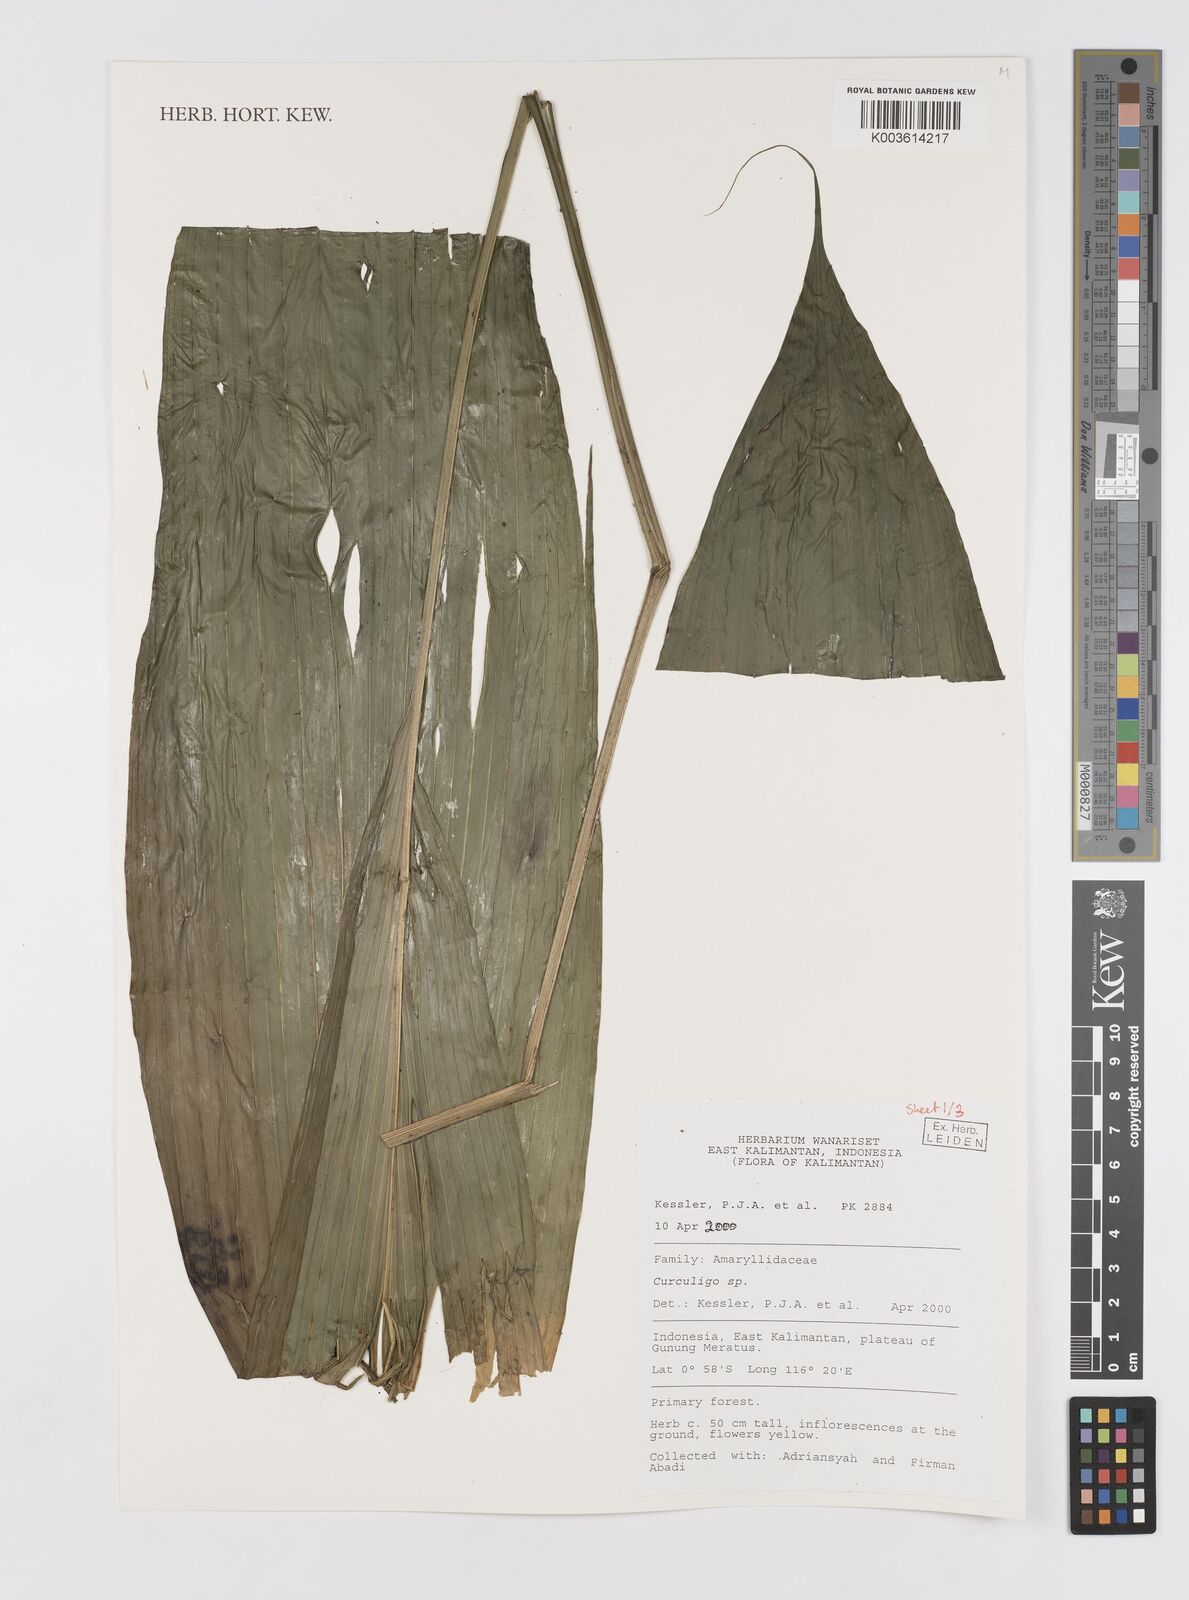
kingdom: Plantae
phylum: Tracheophyta
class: Liliopsida
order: Asparagales
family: Hypoxidaceae
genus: Curculigo
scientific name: Curculigo
